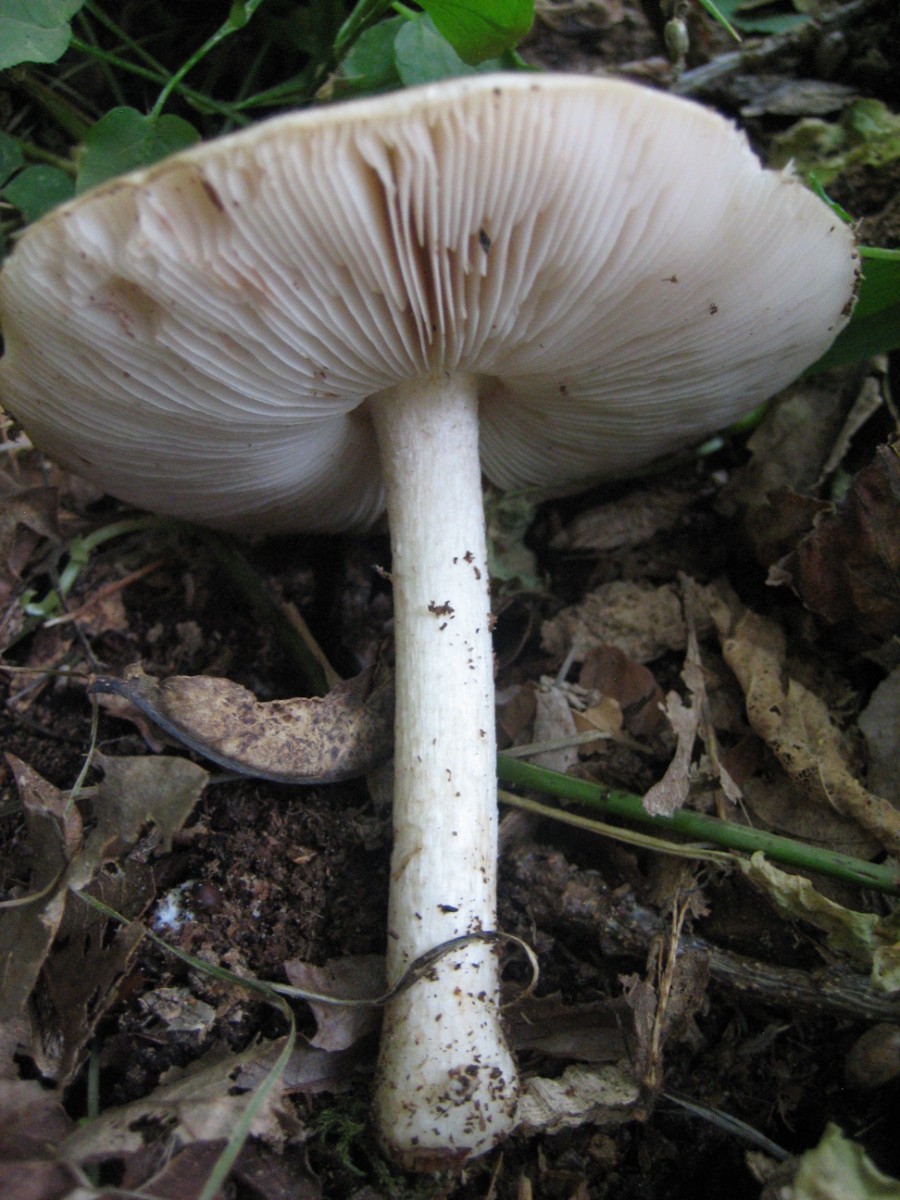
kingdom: Fungi
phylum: Basidiomycota
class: Agaricomycetes
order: Agaricales
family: Pluteaceae
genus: Pluteus
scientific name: Pluteus cervinus
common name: sodfarvet skærmhat
